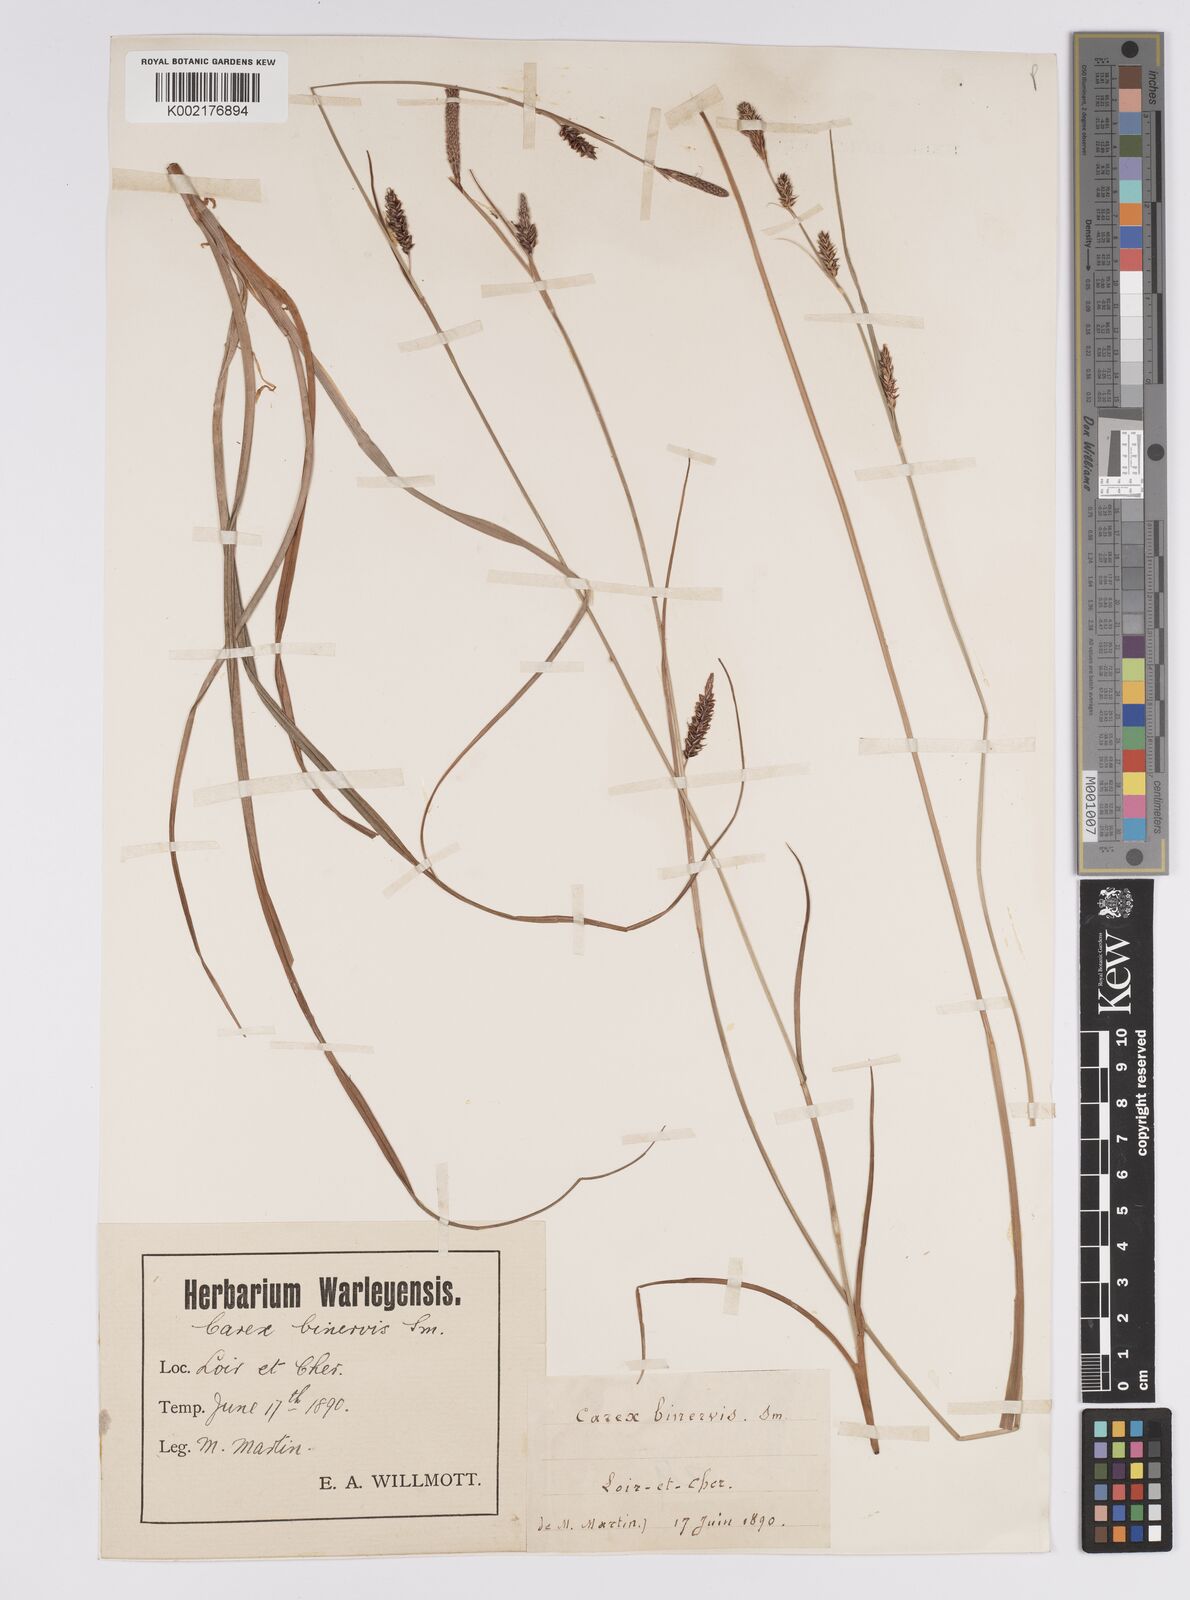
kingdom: Plantae
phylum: Tracheophyta
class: Liliopsida
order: Poales
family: Cyperaceae
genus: Carex
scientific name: Carex binervis
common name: Green-ribbed sedge
